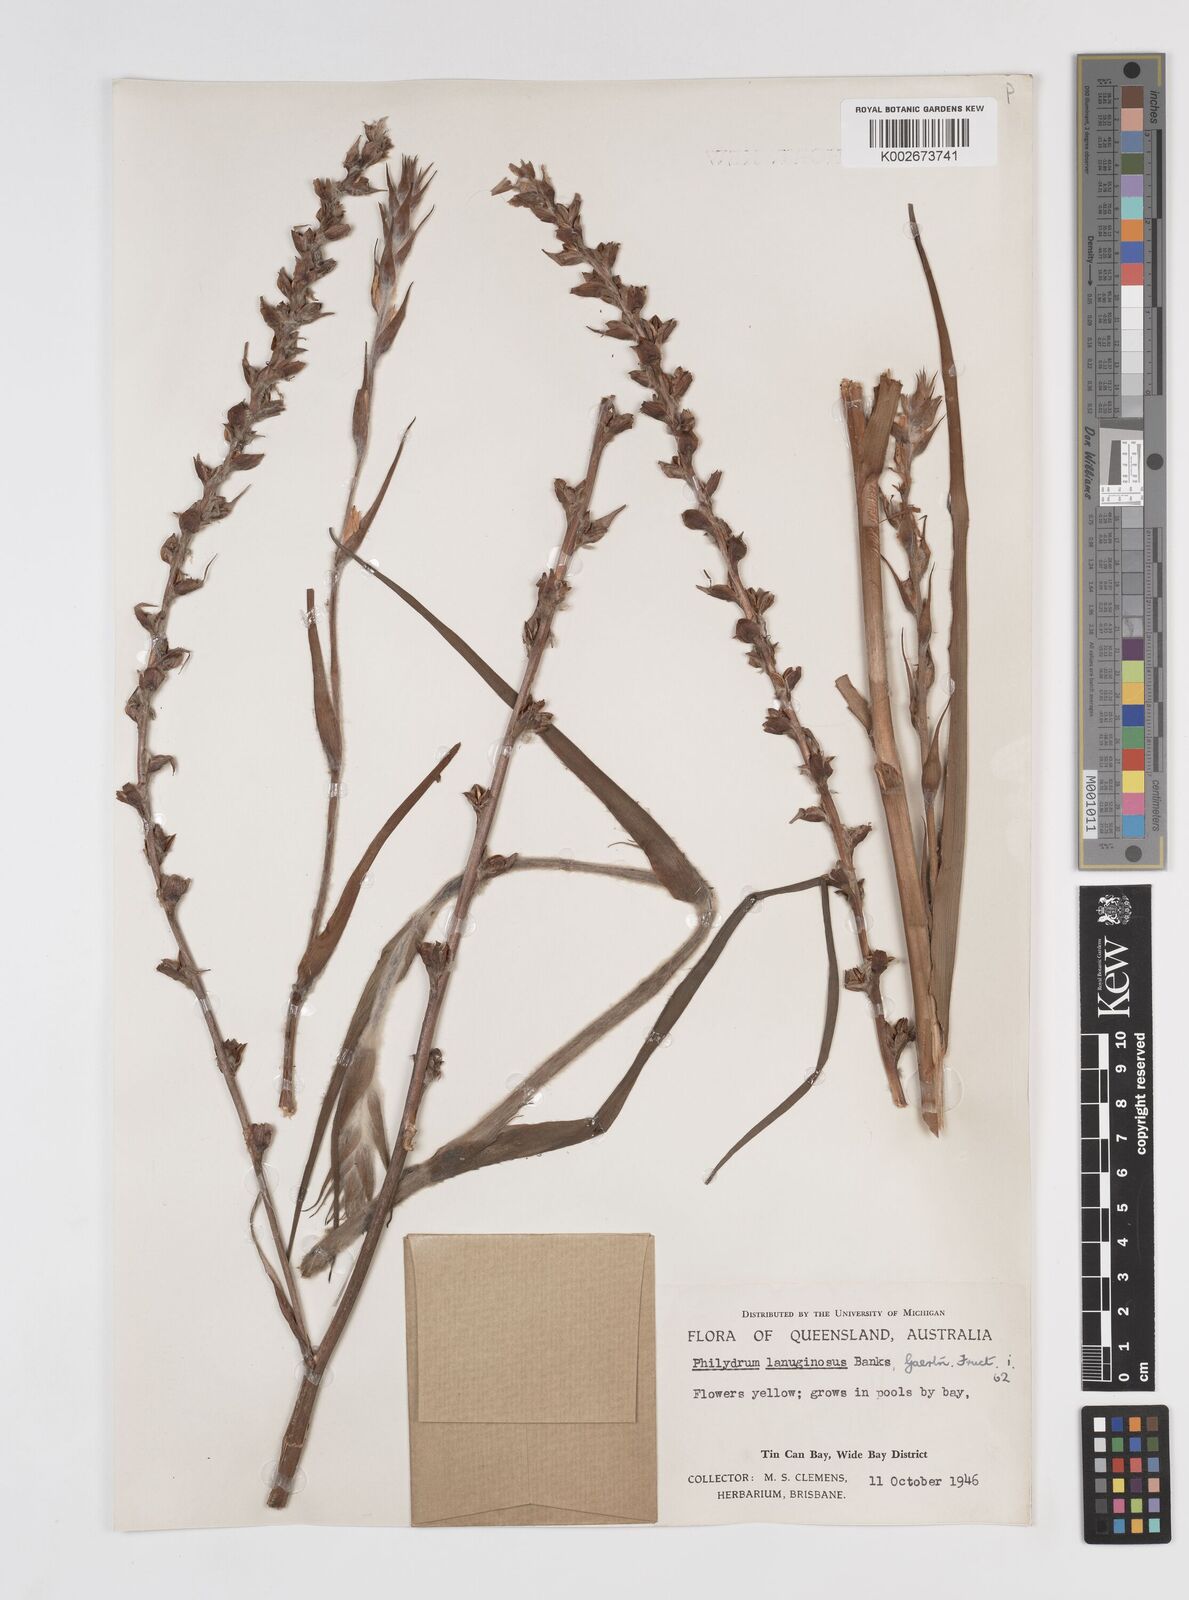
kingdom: Plantae
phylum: Tracheophyta
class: Liliopsida
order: Commelinales
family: Philydraceae
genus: Philydrum
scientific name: Philydrum lanuginosum
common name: Woolly frog's mouth
